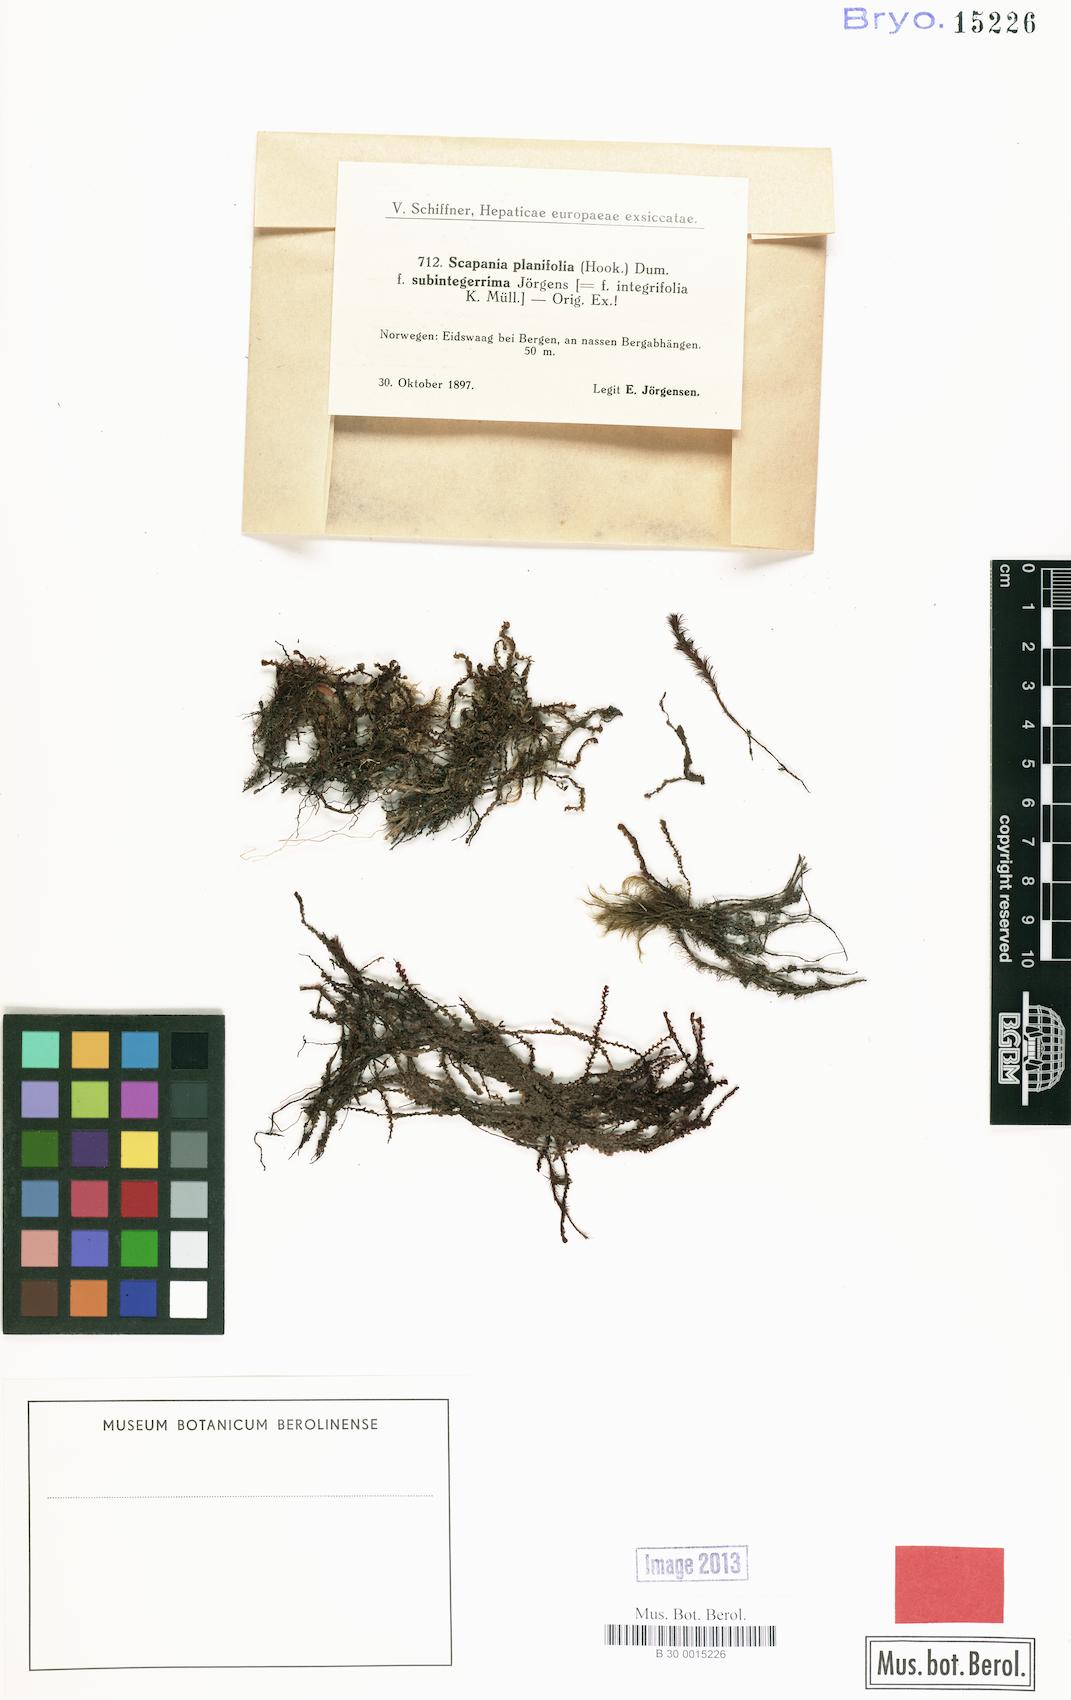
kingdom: Plantae
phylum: Marchantiophyta
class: Jungermanniopsida
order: Jungermanniales
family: Scapaniaceae
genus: Scapania
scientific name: Scapania ornithopodioides
